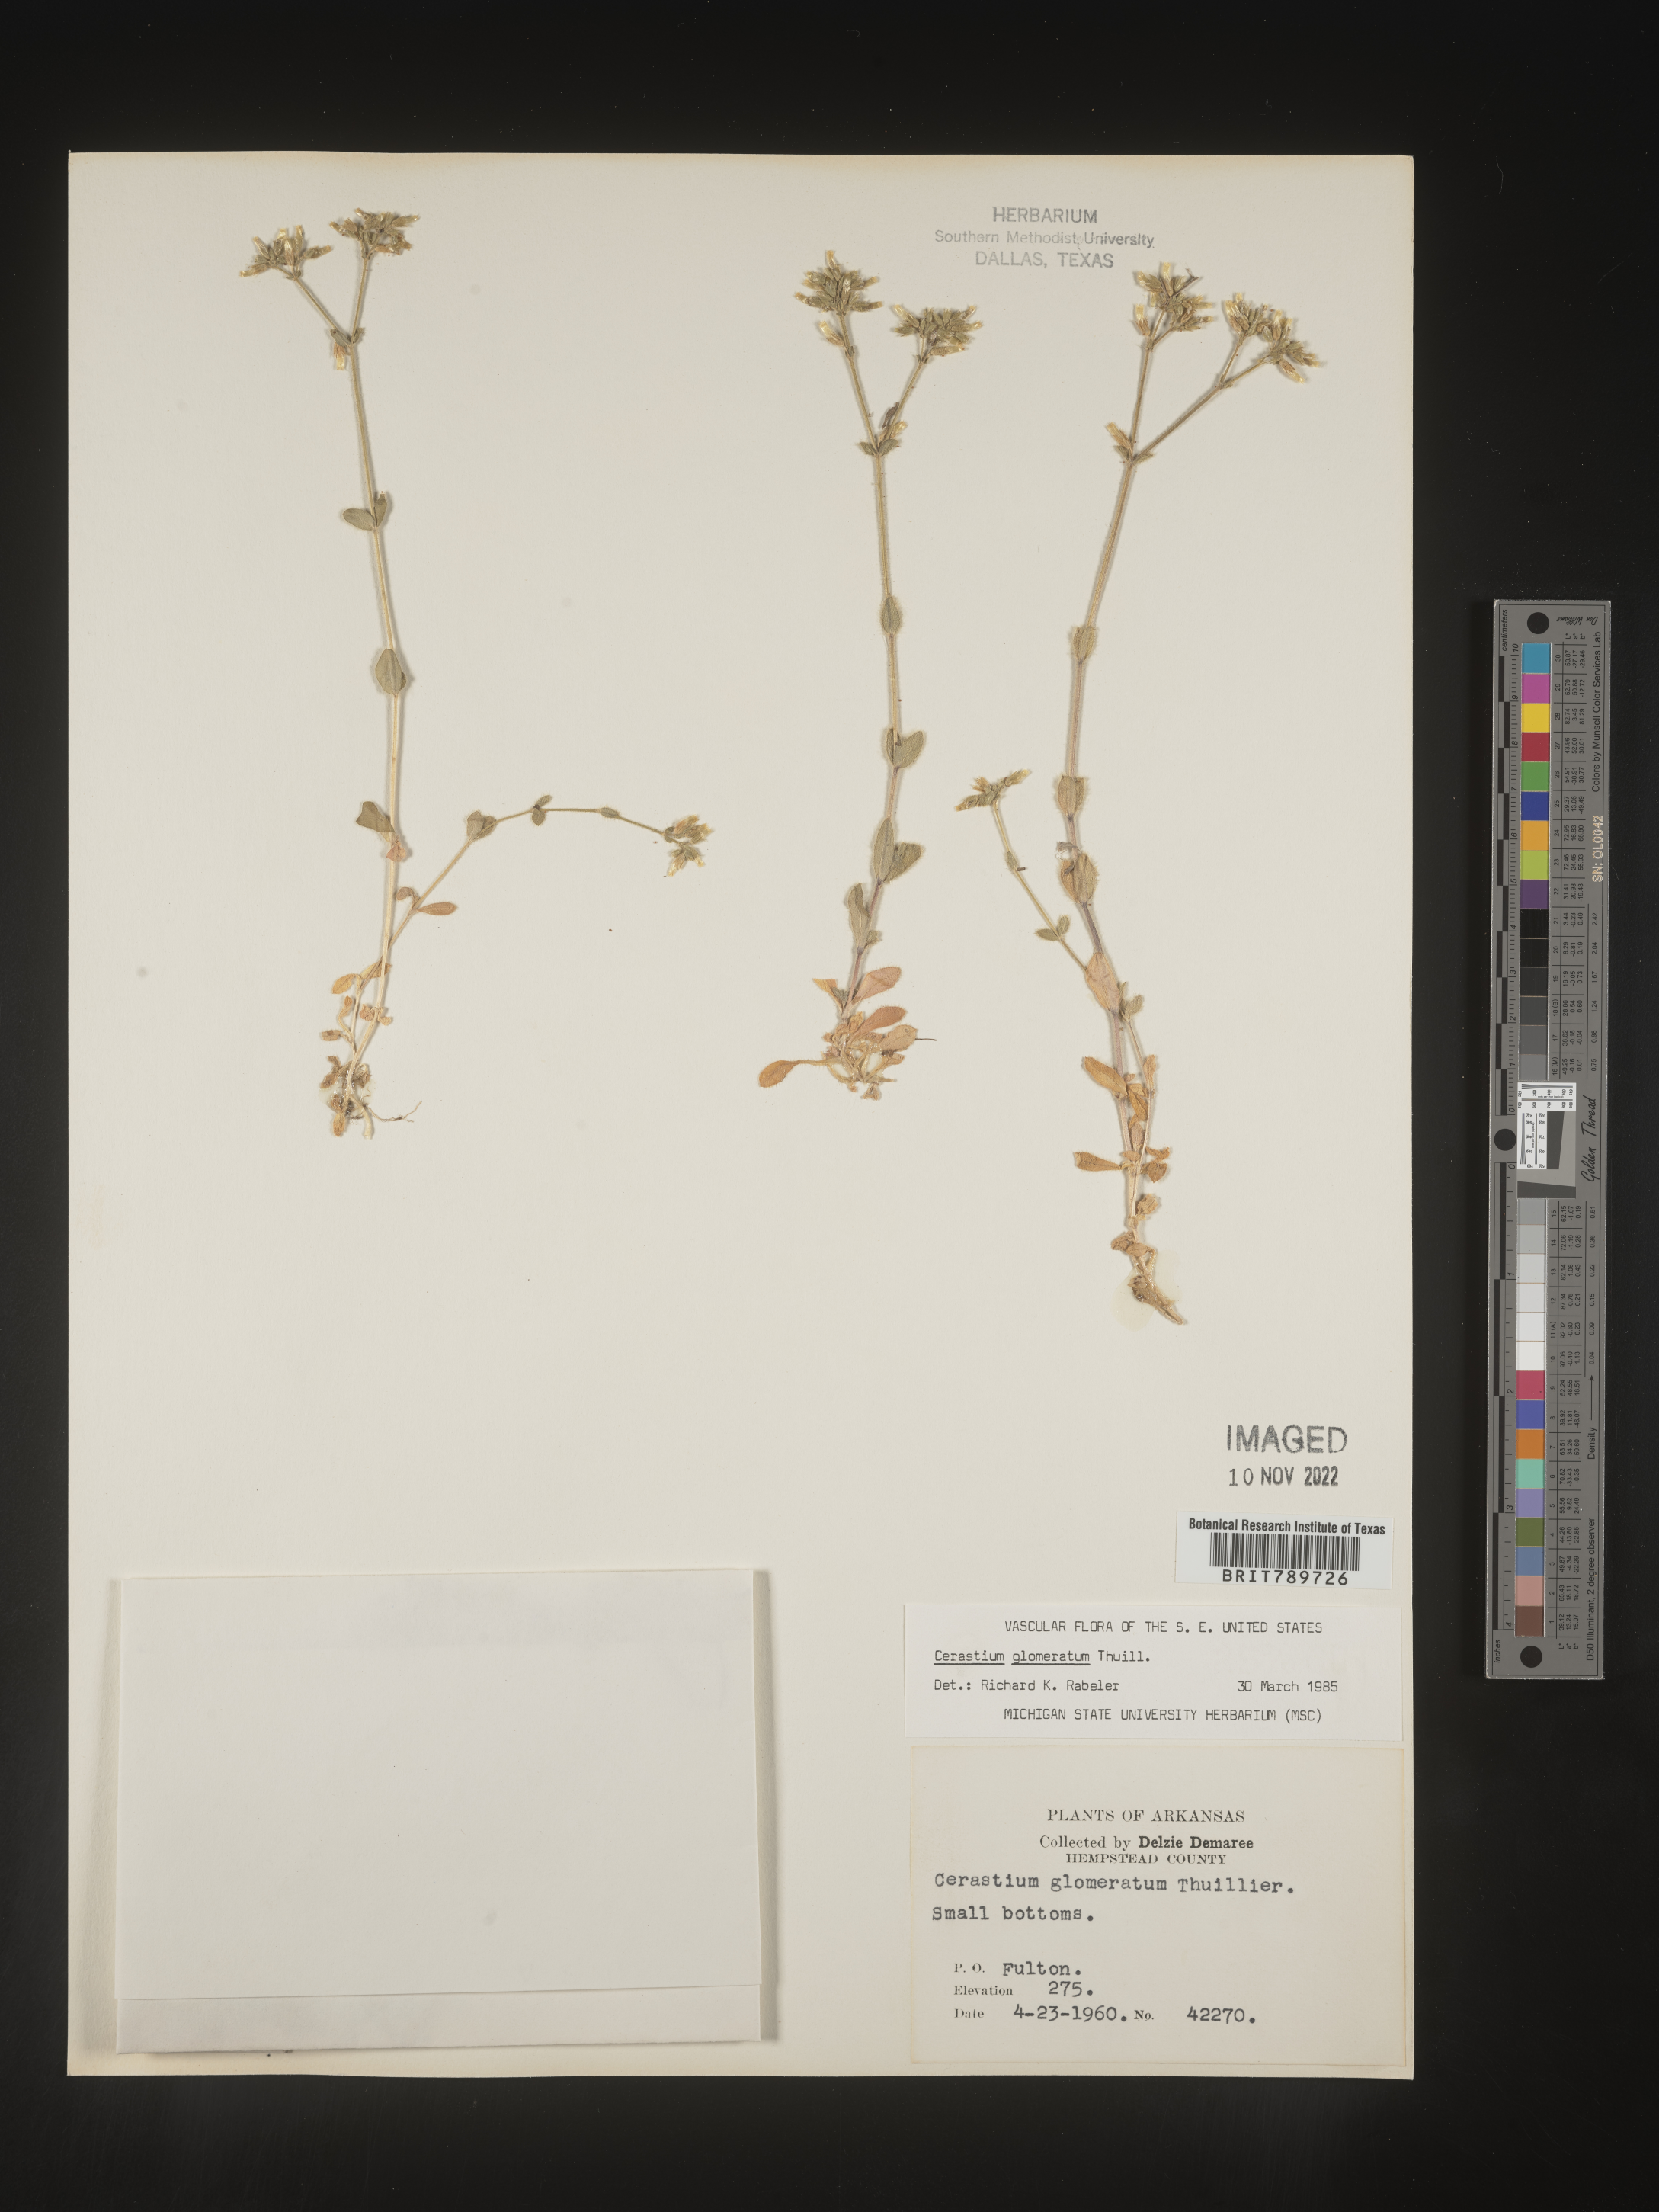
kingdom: Plantae
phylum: Tracheophyta
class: Magnoliopsida
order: Caryophyllales
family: Caryophyllaceae
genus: Cerastium
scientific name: Cerastium glomeratum
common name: Sticky chickweed
